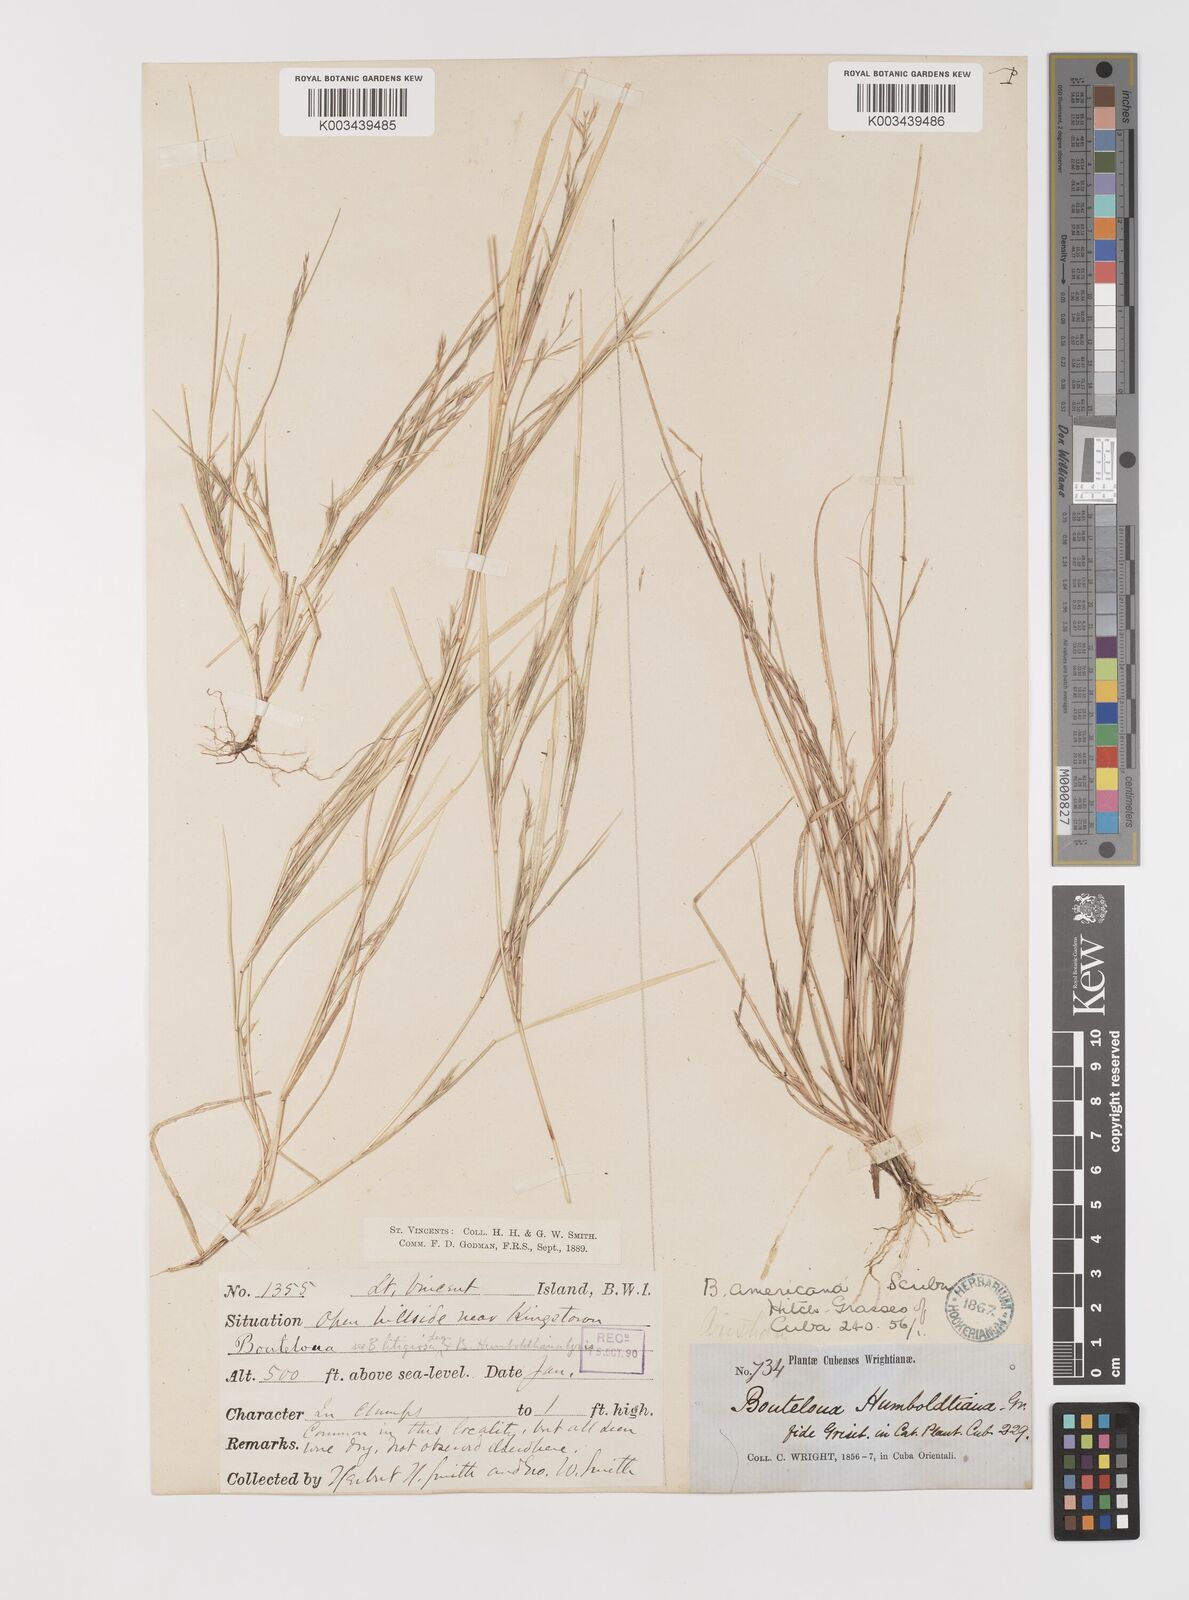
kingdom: Plantae
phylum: Tracheophyta
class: Liliopsida
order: Poales
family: Poaceae
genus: Bouteloua
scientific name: Bouteloua americana
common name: Mule grass
